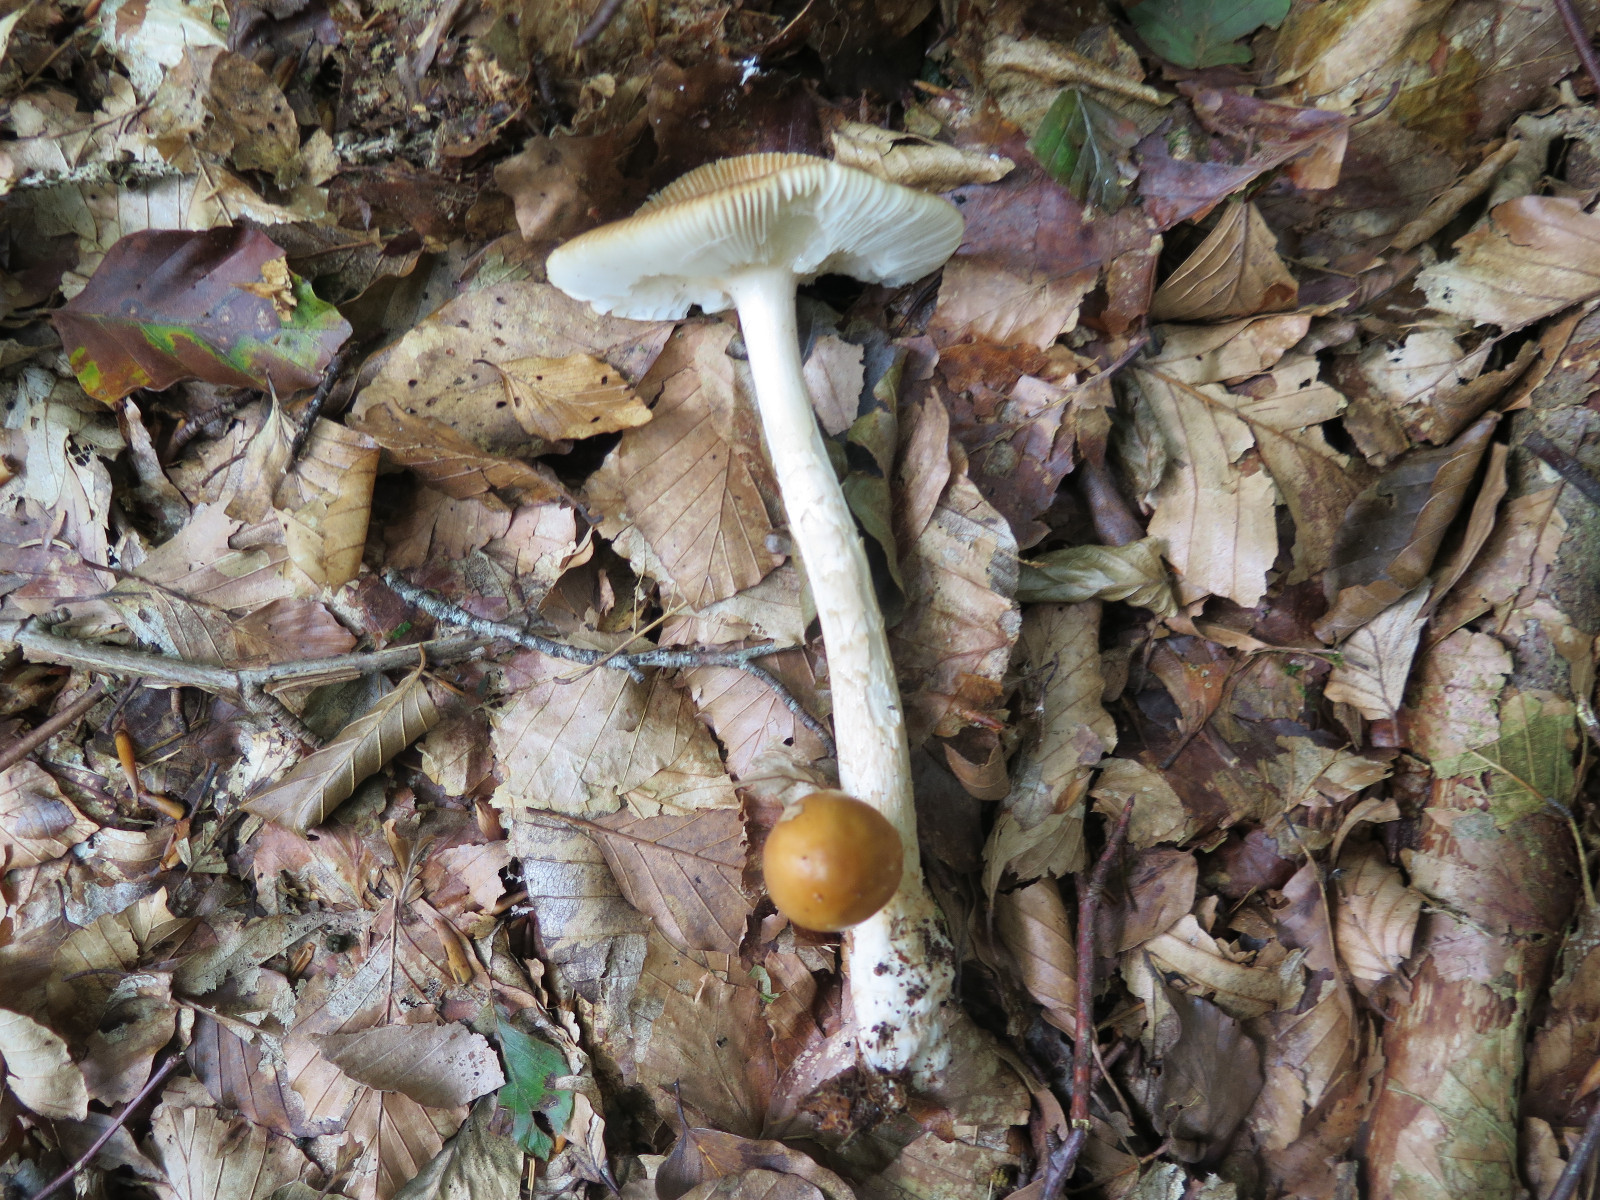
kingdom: Fungi
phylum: Basidiomycota
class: Agaricomycetes
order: Agaricales
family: Amanitaceae
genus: Amanita
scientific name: Amanita fulva
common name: brun kam-fluesvamp
